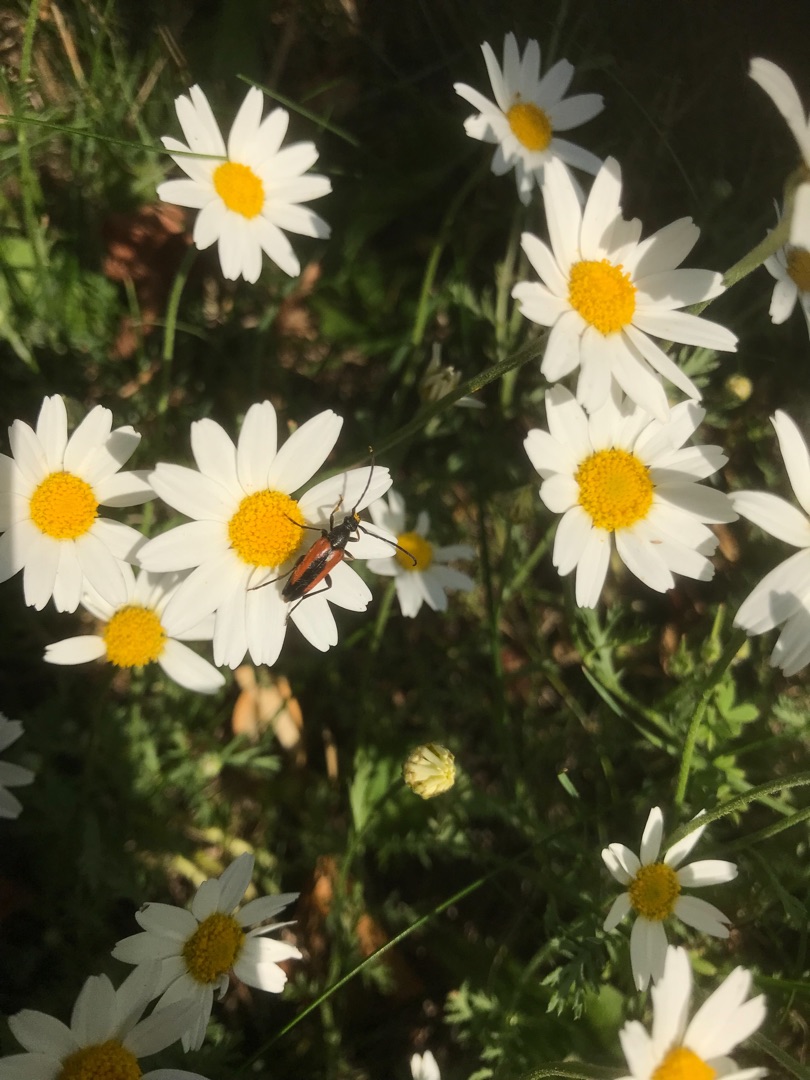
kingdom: Animalia
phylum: Arthropoda
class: Insecta
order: Coleoptera
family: Cerambycidae
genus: Stenurella
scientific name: Stenurella melanura
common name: Sortsømmet blomsterbuk
